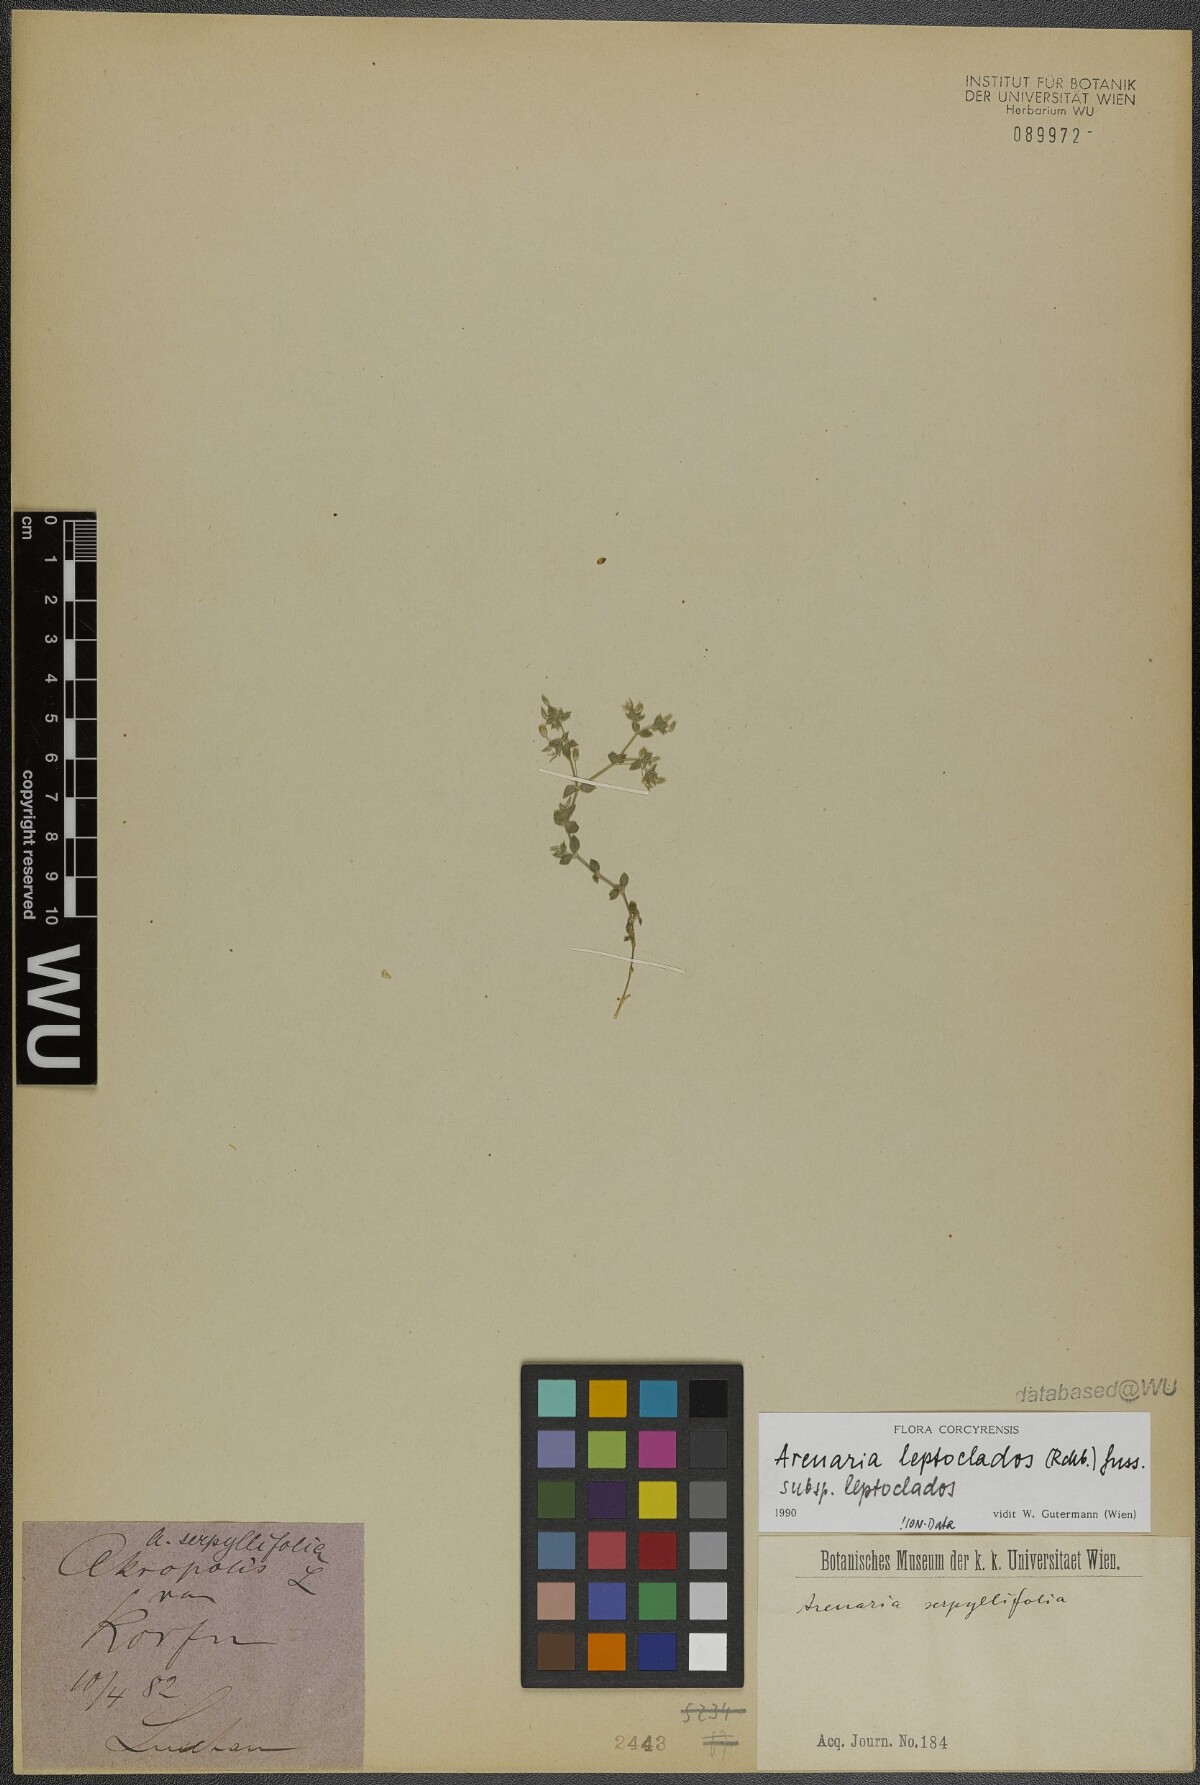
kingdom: Plantae
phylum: Tracheophyta
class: Magnoliopsida
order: Caryophyllales
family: Caryophyllaceae
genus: Arenaria
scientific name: Arenaria leptoclados
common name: Thyme-leaved sandwort
